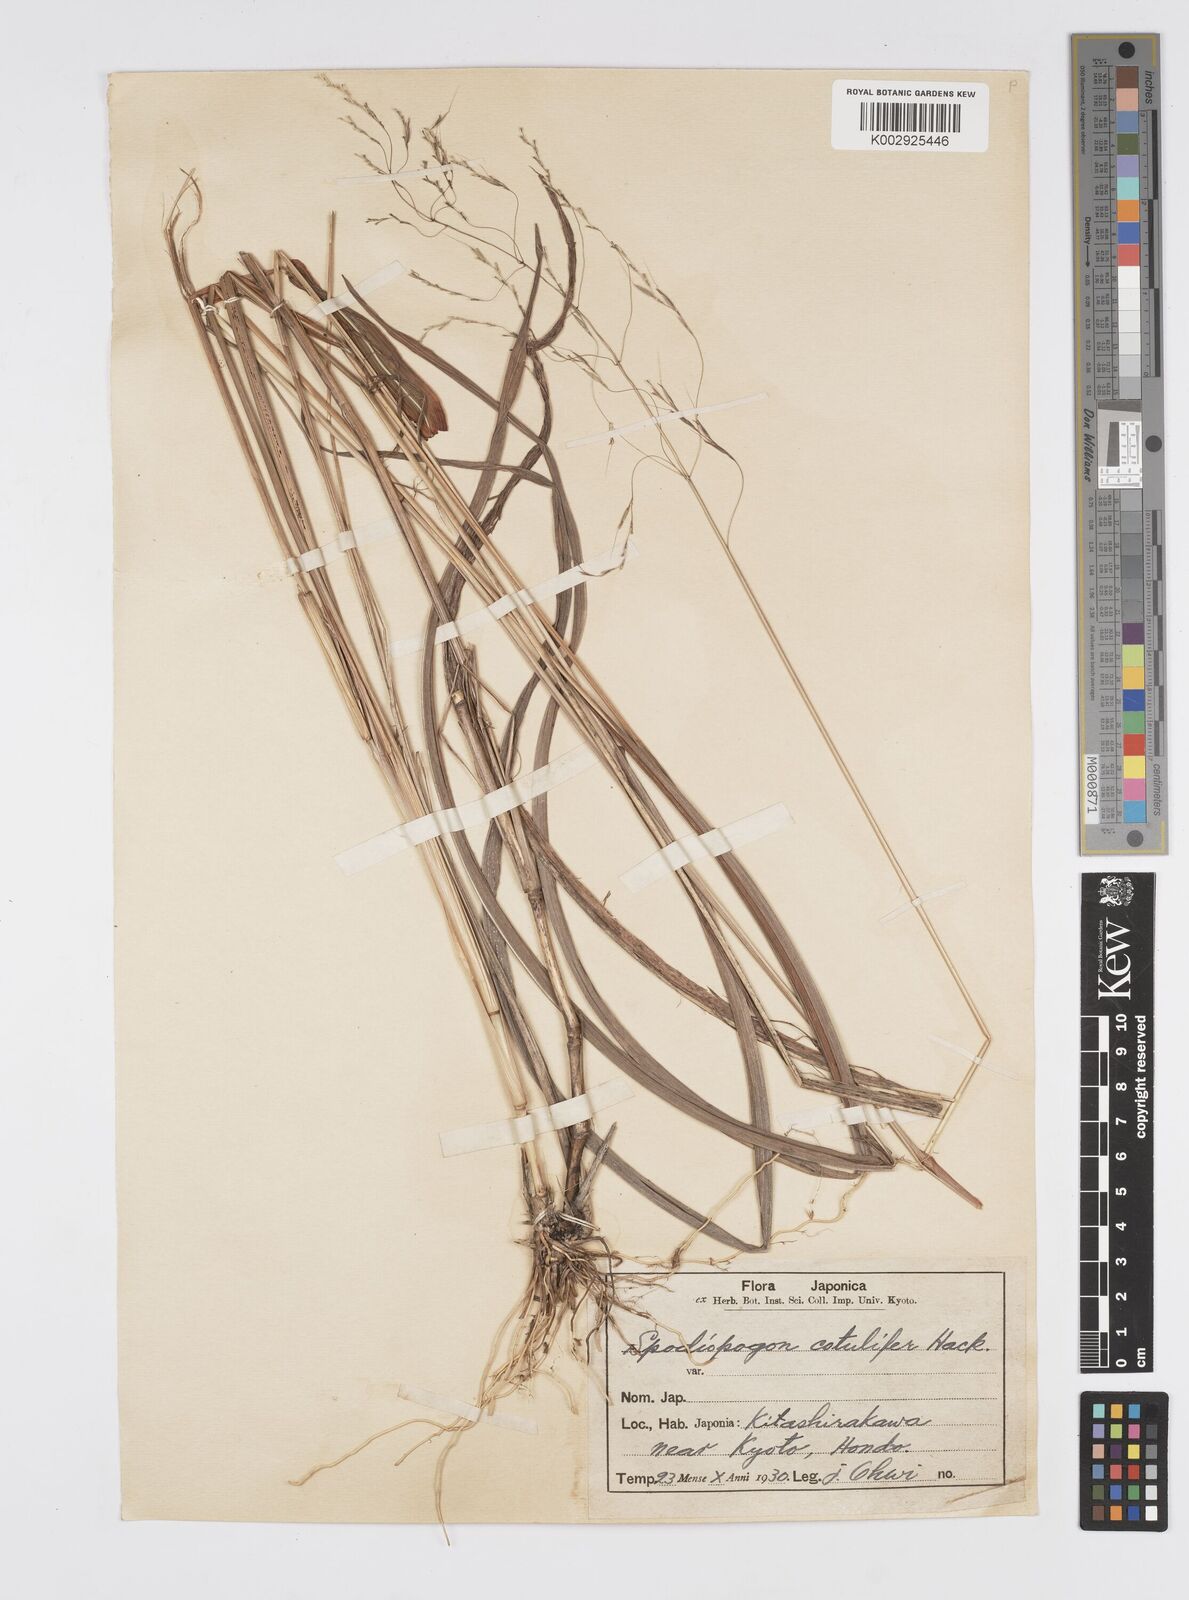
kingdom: Plantae
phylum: Tracheophyta
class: Liliopsida
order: Poales
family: Poaceae
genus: Spodiopogon
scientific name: Spodiopogon cotulifer
